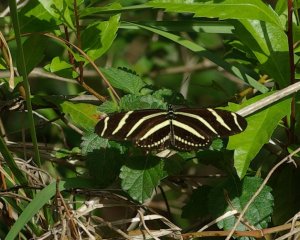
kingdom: Animalia
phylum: Arthropoda
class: Insecta
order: Lepidoptera
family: Nymphalidae
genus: Heliconius
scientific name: Heliconius charithonia
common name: Zebra Longwing
